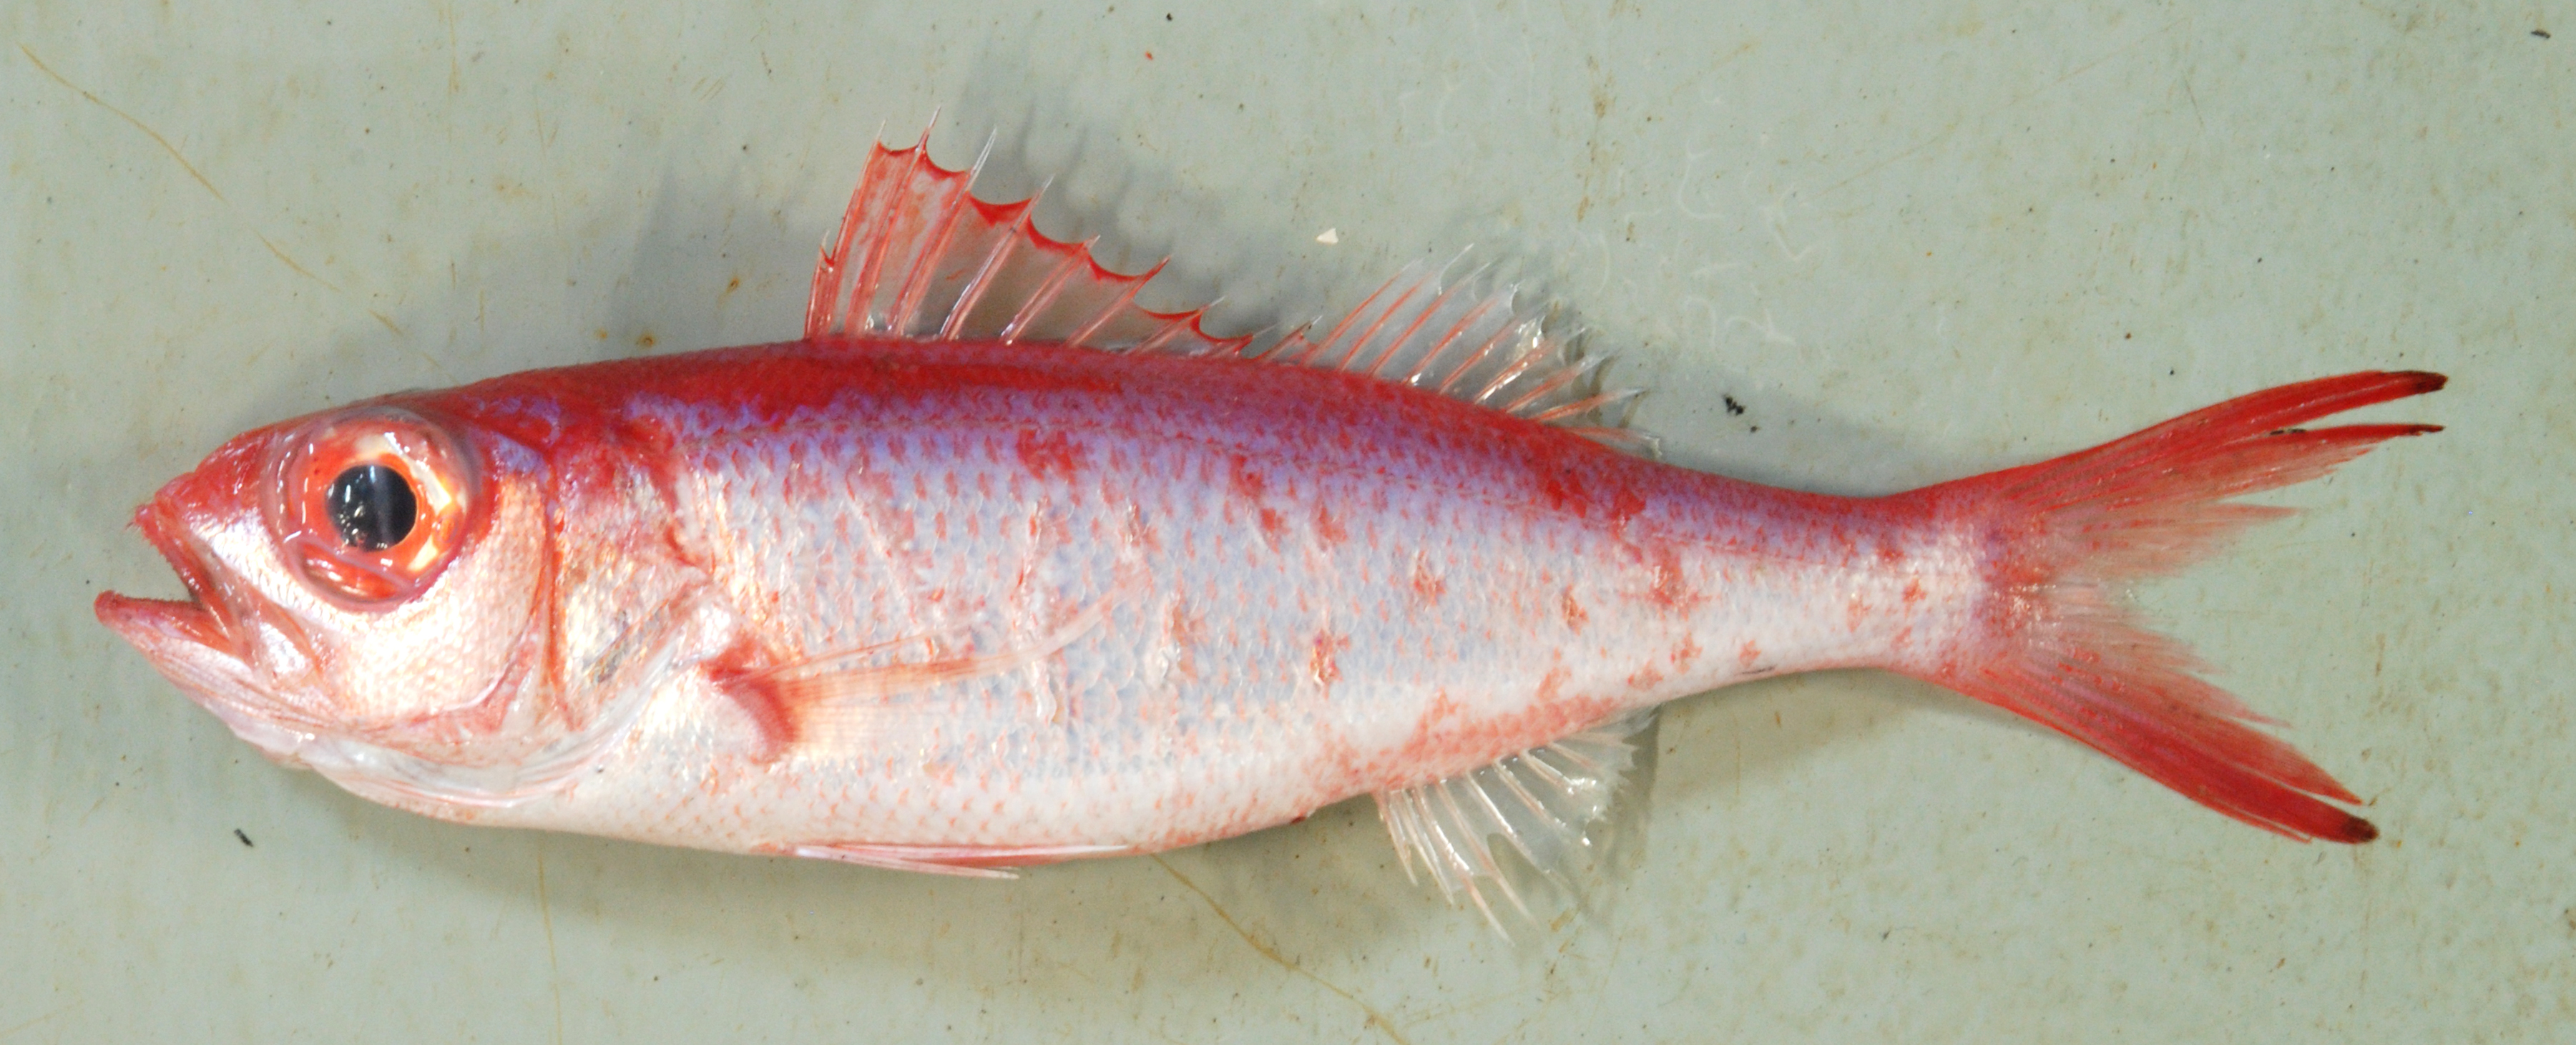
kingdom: Animalia
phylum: Chordata
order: Perciformes
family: Lutjanidae
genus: Etelis
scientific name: Etelis
